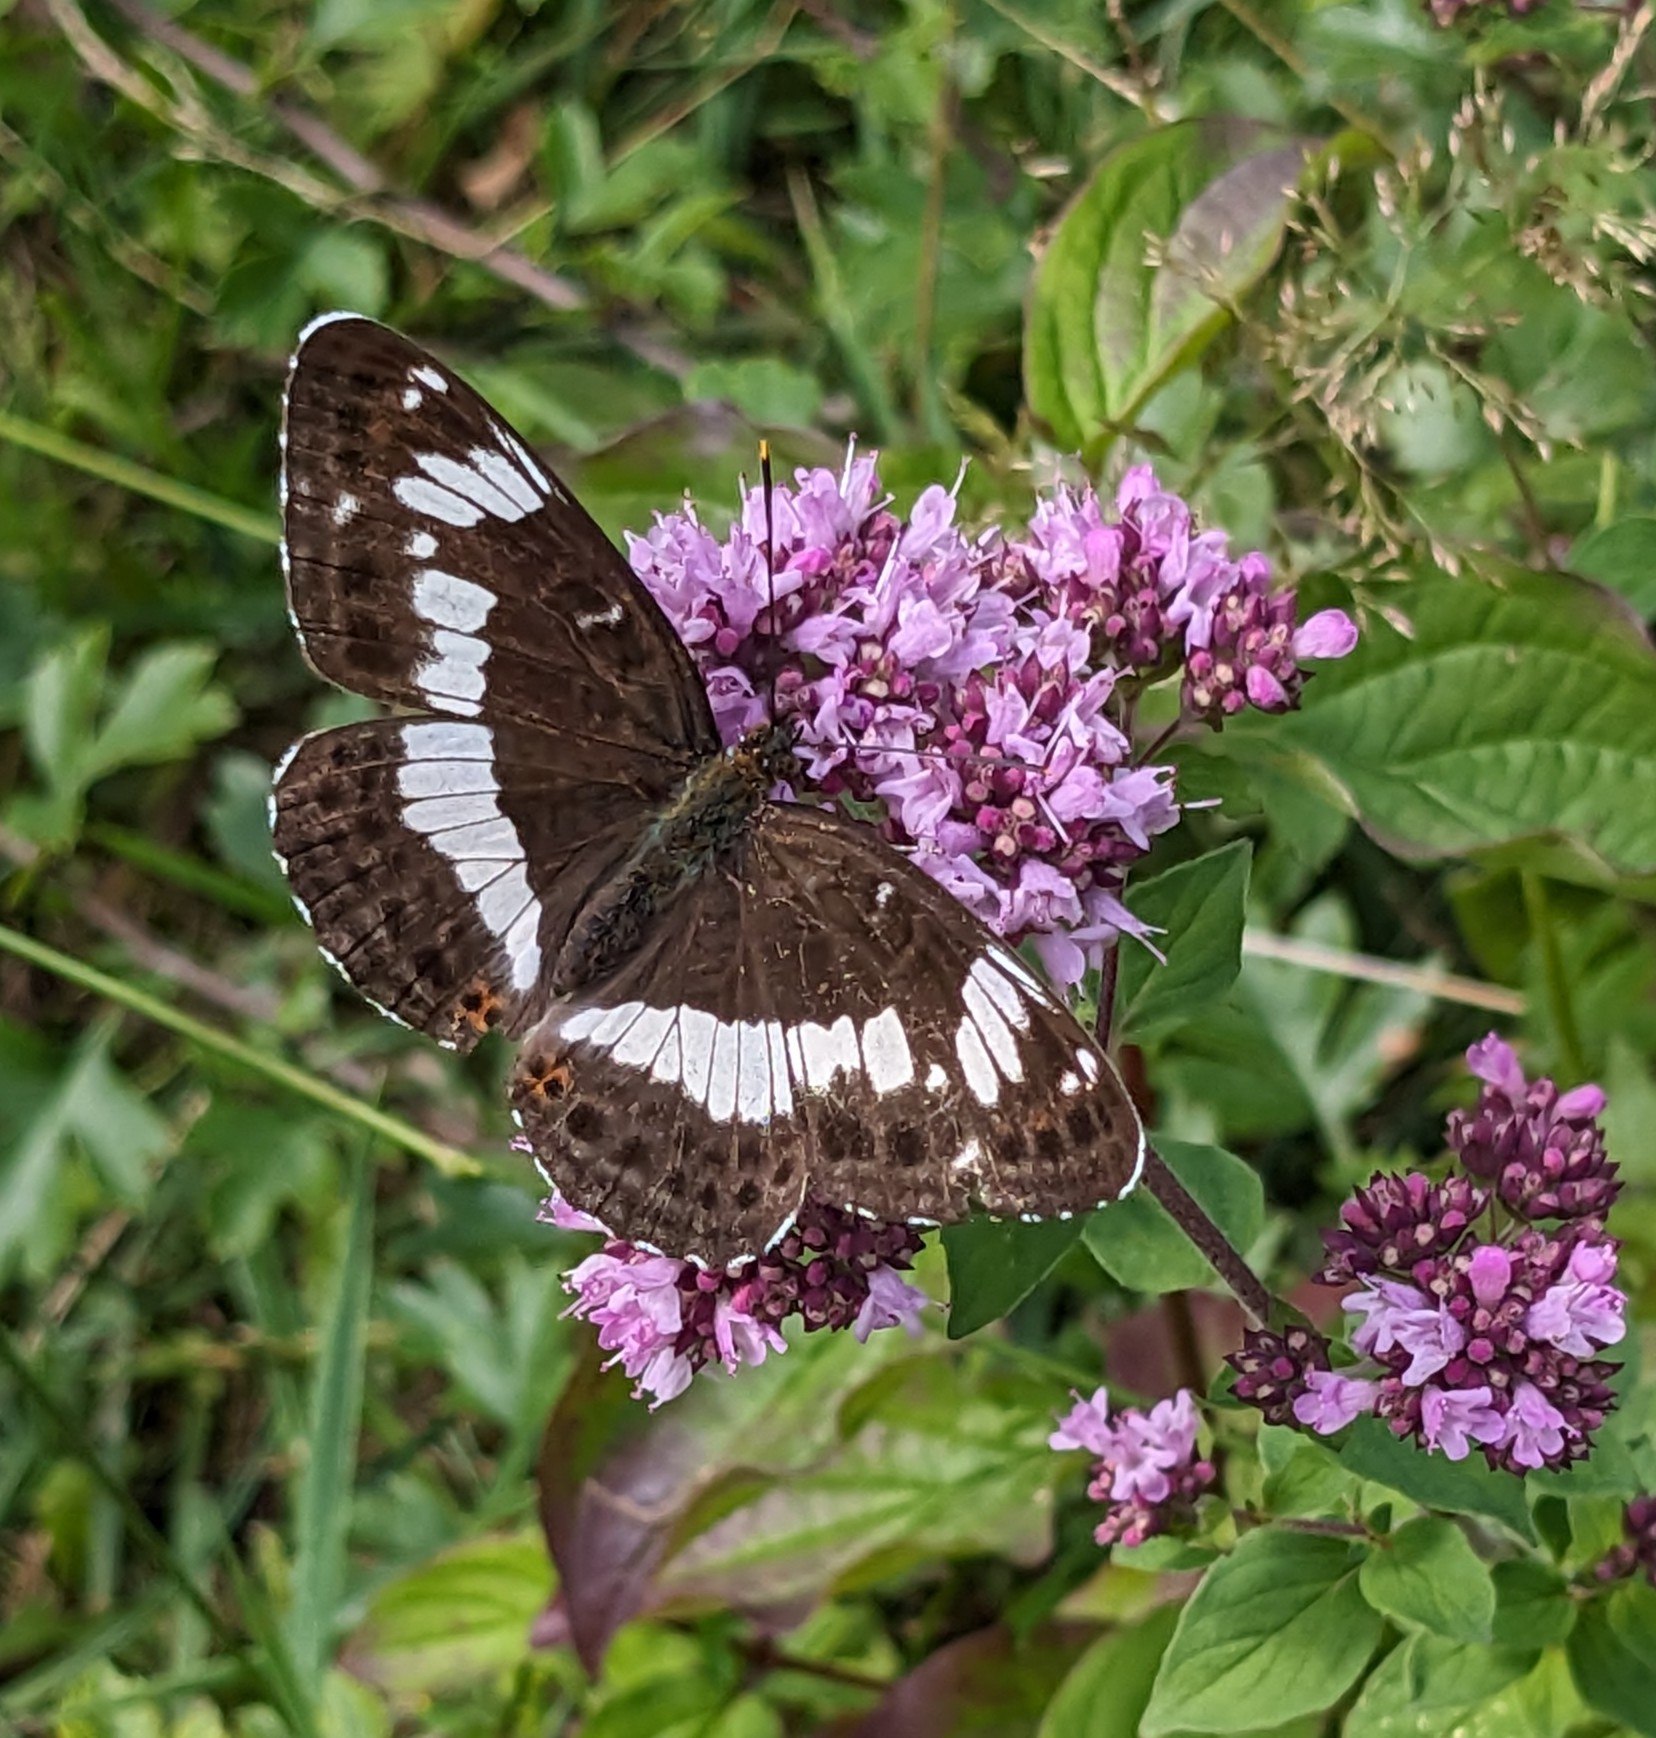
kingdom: Animalia
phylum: Arthropoda
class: Insecta
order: Lepidoptera
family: Nymphalidae
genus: Ladoga
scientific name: Ladoga camilla
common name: Hvid admiral
